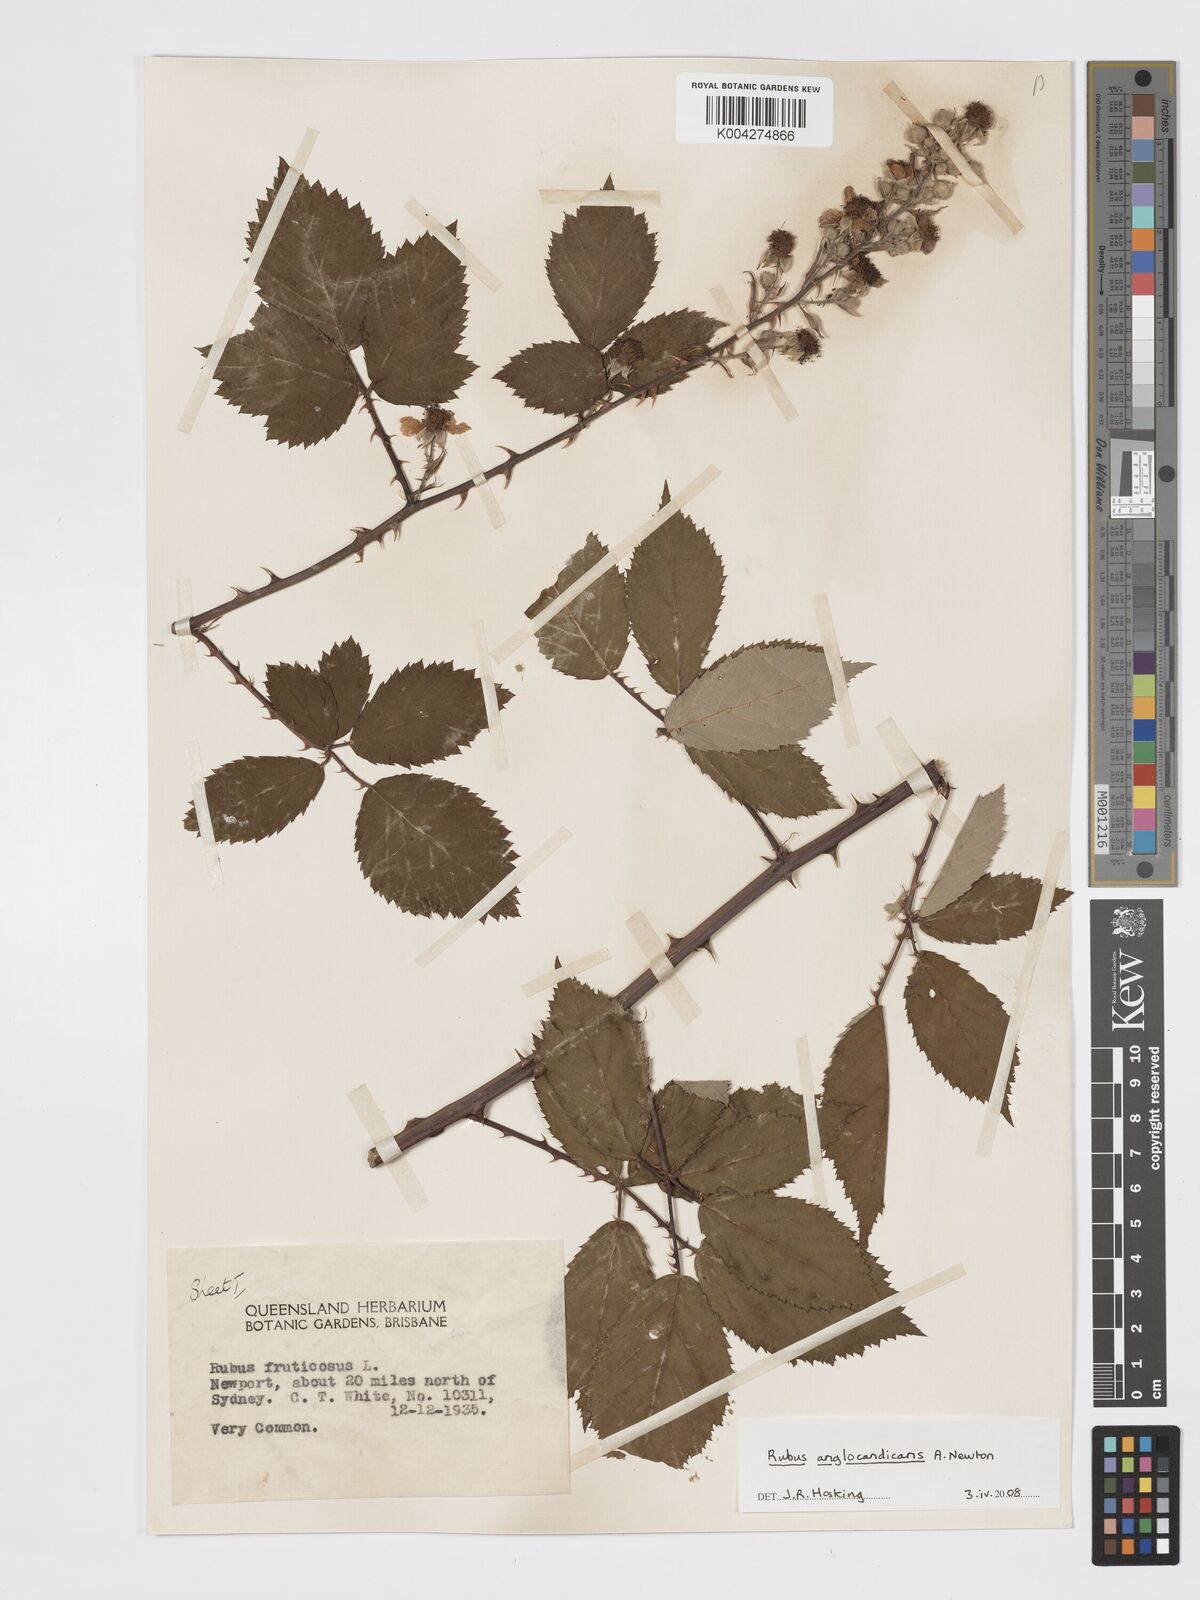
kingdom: Plantae
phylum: Tracheophyta
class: Magnoliopsida
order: Rosales
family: Rosaceae
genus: Rubus
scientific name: Rubus anglocandicans
